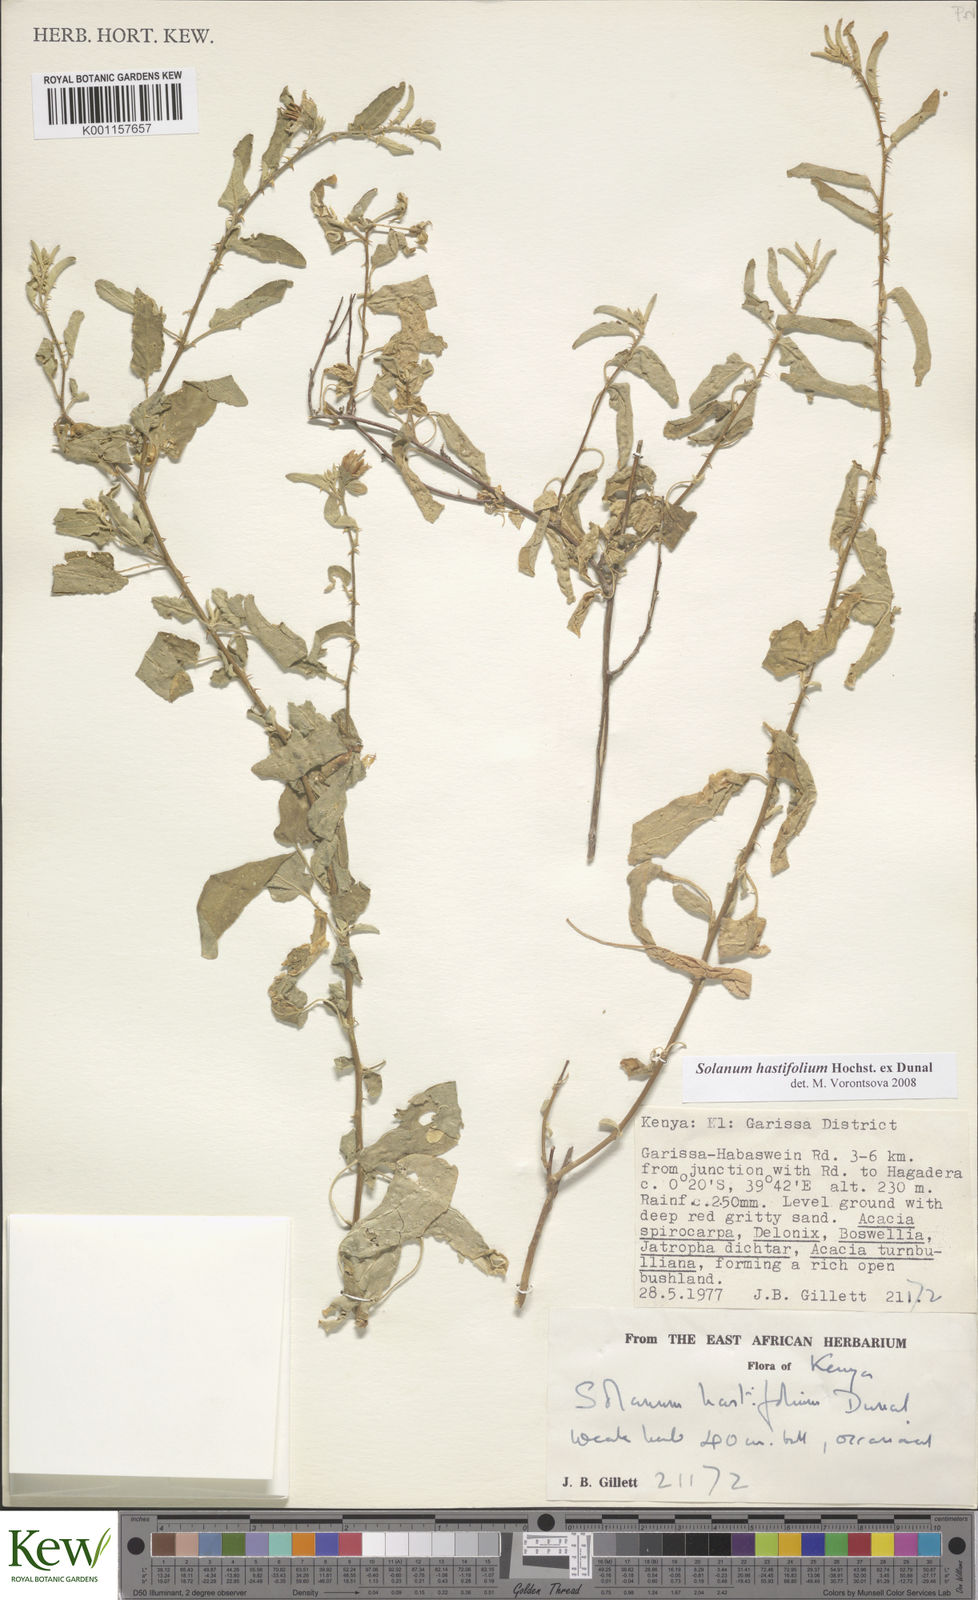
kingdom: Plantae
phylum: Tracheophyta
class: Magnoliopsida
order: Solanales
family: Solanaceae
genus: Solanum
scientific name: Solanum hastifolium
